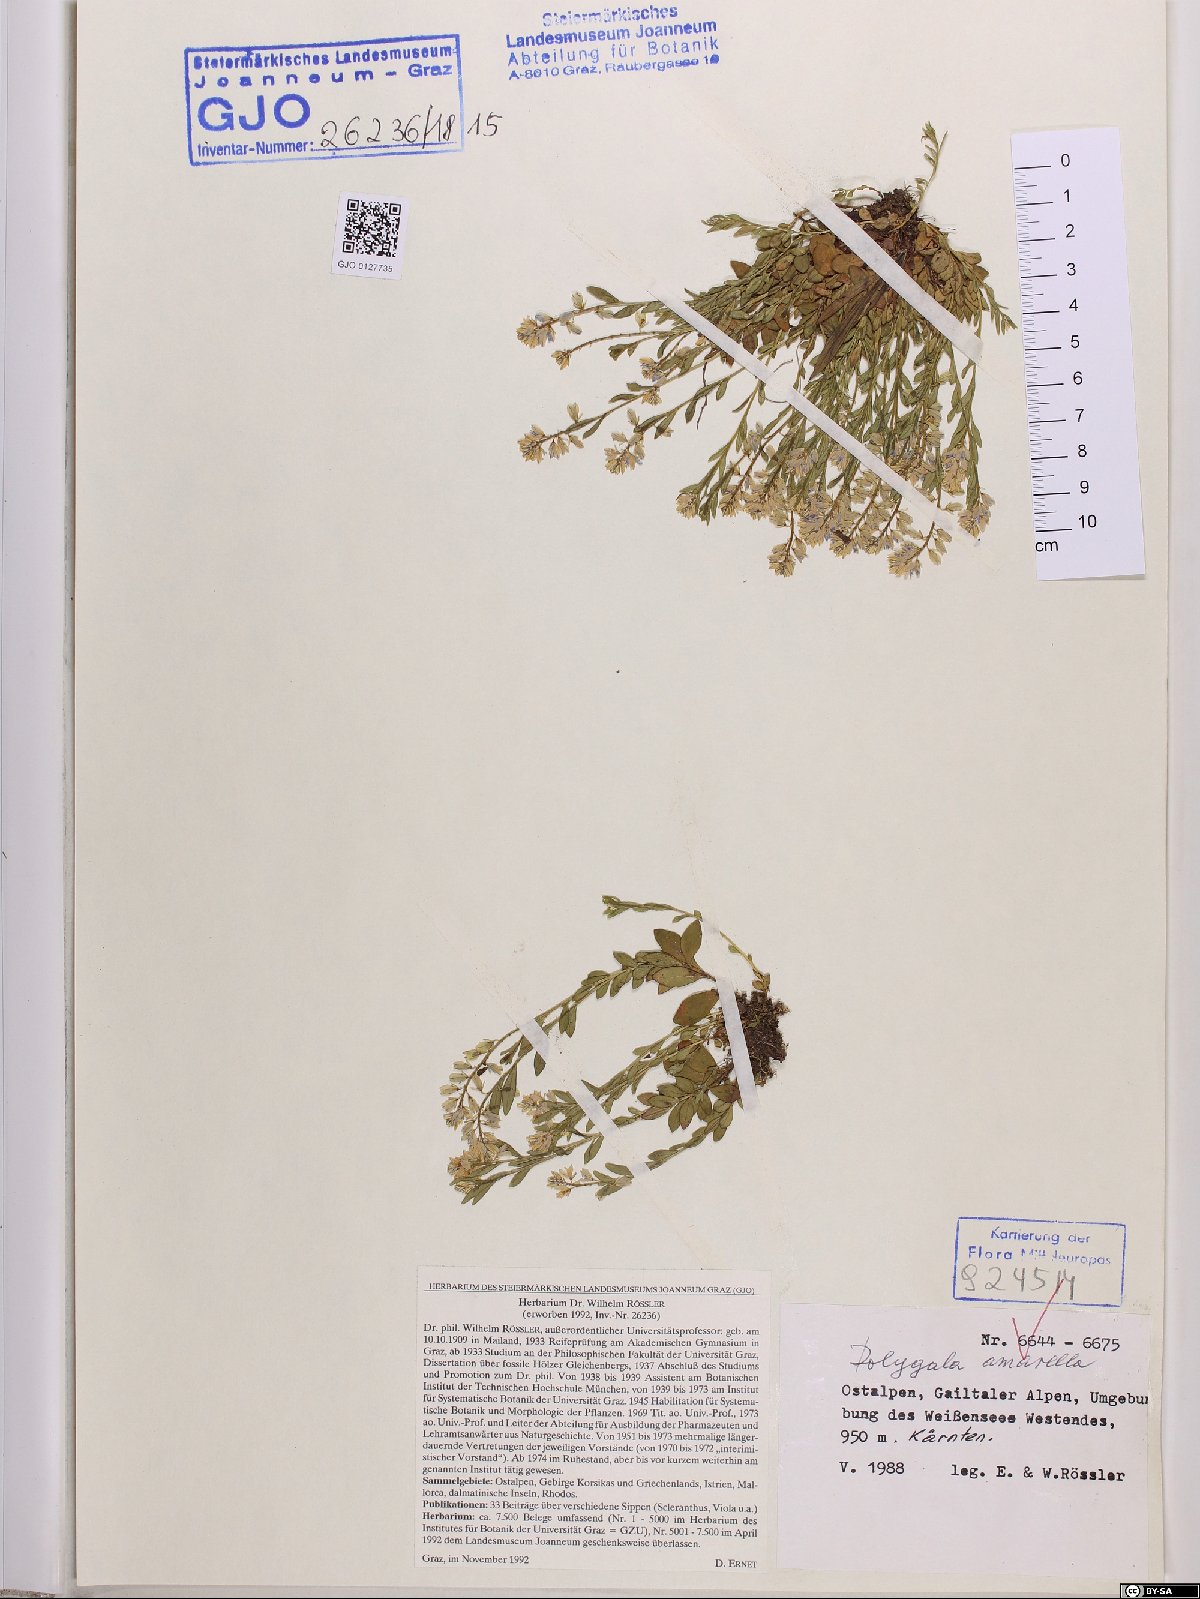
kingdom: Plantae
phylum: Tracheophyta
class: Magnoliopsida
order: Fabales
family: Polygalaceae
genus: Polygala
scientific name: Polygala amarella
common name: Dwarf milkwort
